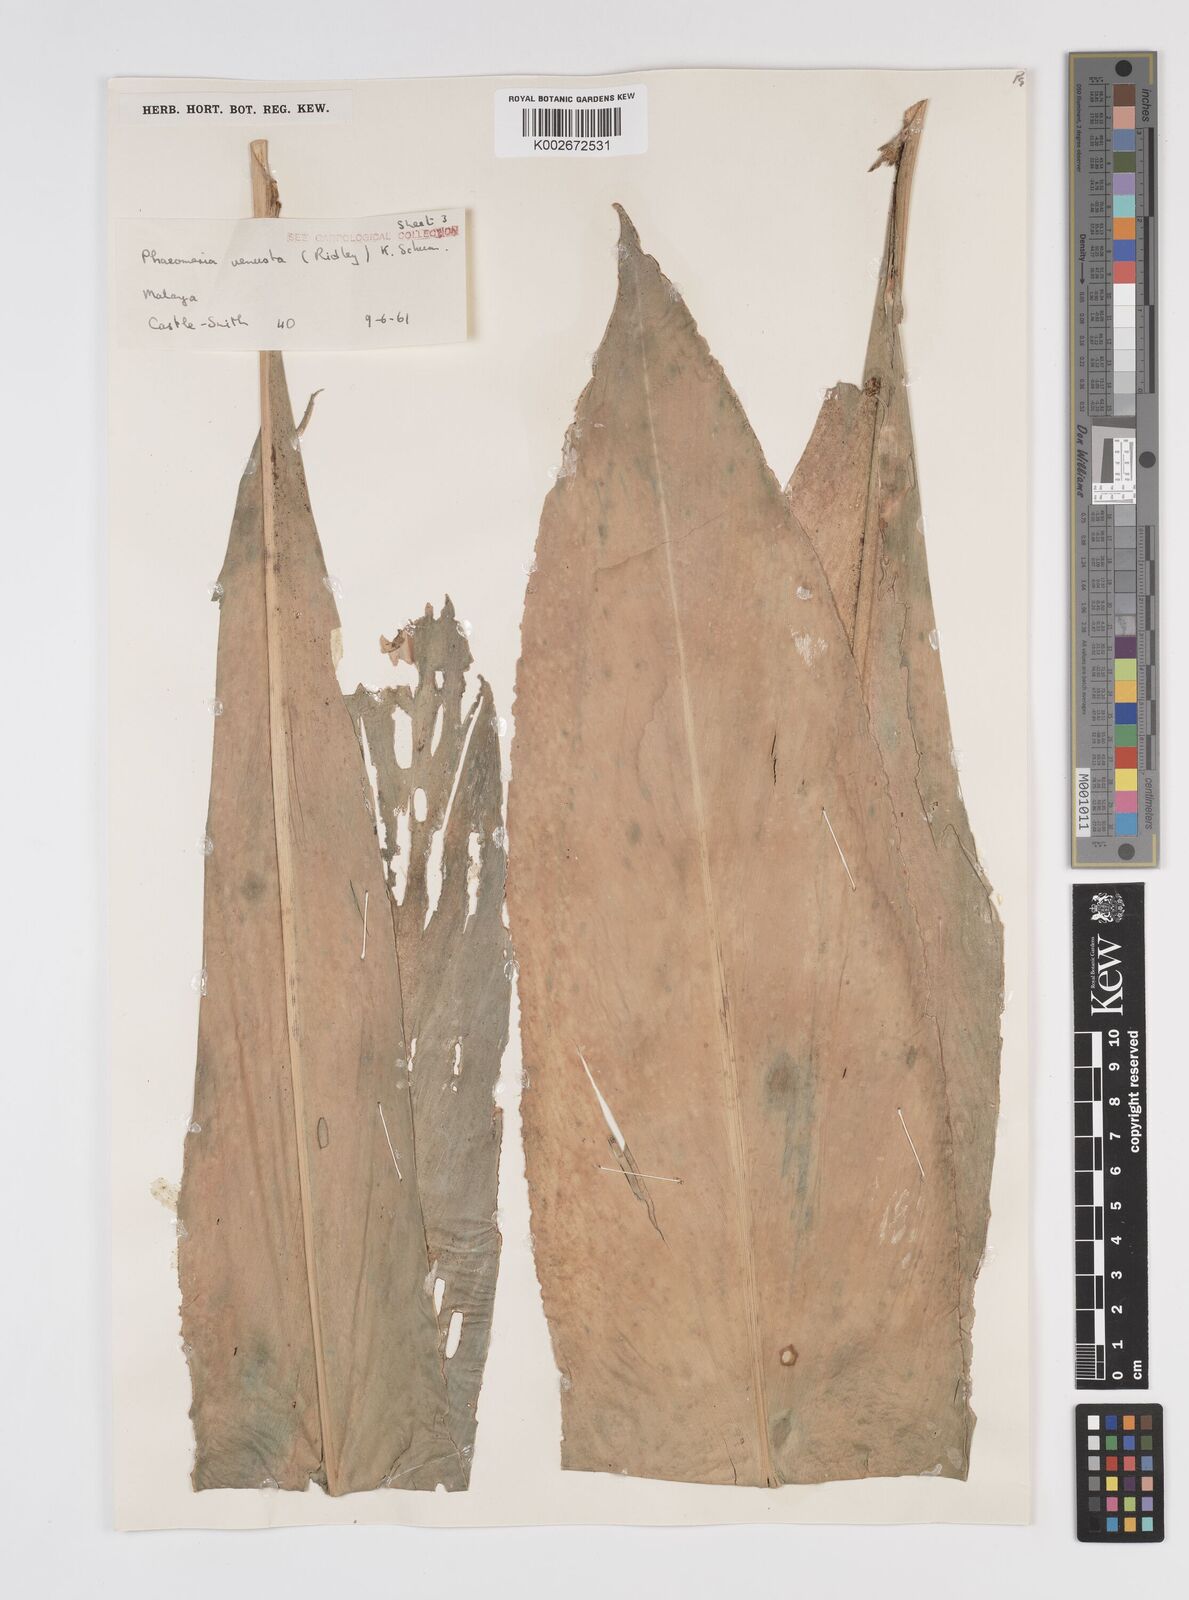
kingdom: Plantae
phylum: Tracheophyta
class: Liliopsida
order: Zingiberales
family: Zingiberaceae
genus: Etlingera
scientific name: Etlingera venusta
